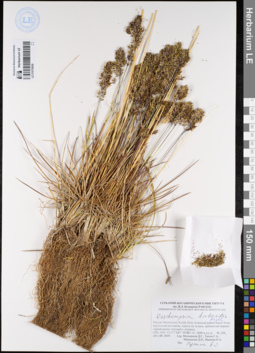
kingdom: Plantae
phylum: Tracheophyta
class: Liliopsida
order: Poales
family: Poaceae
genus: Deschampsia
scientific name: Deschampsia koelerioides
